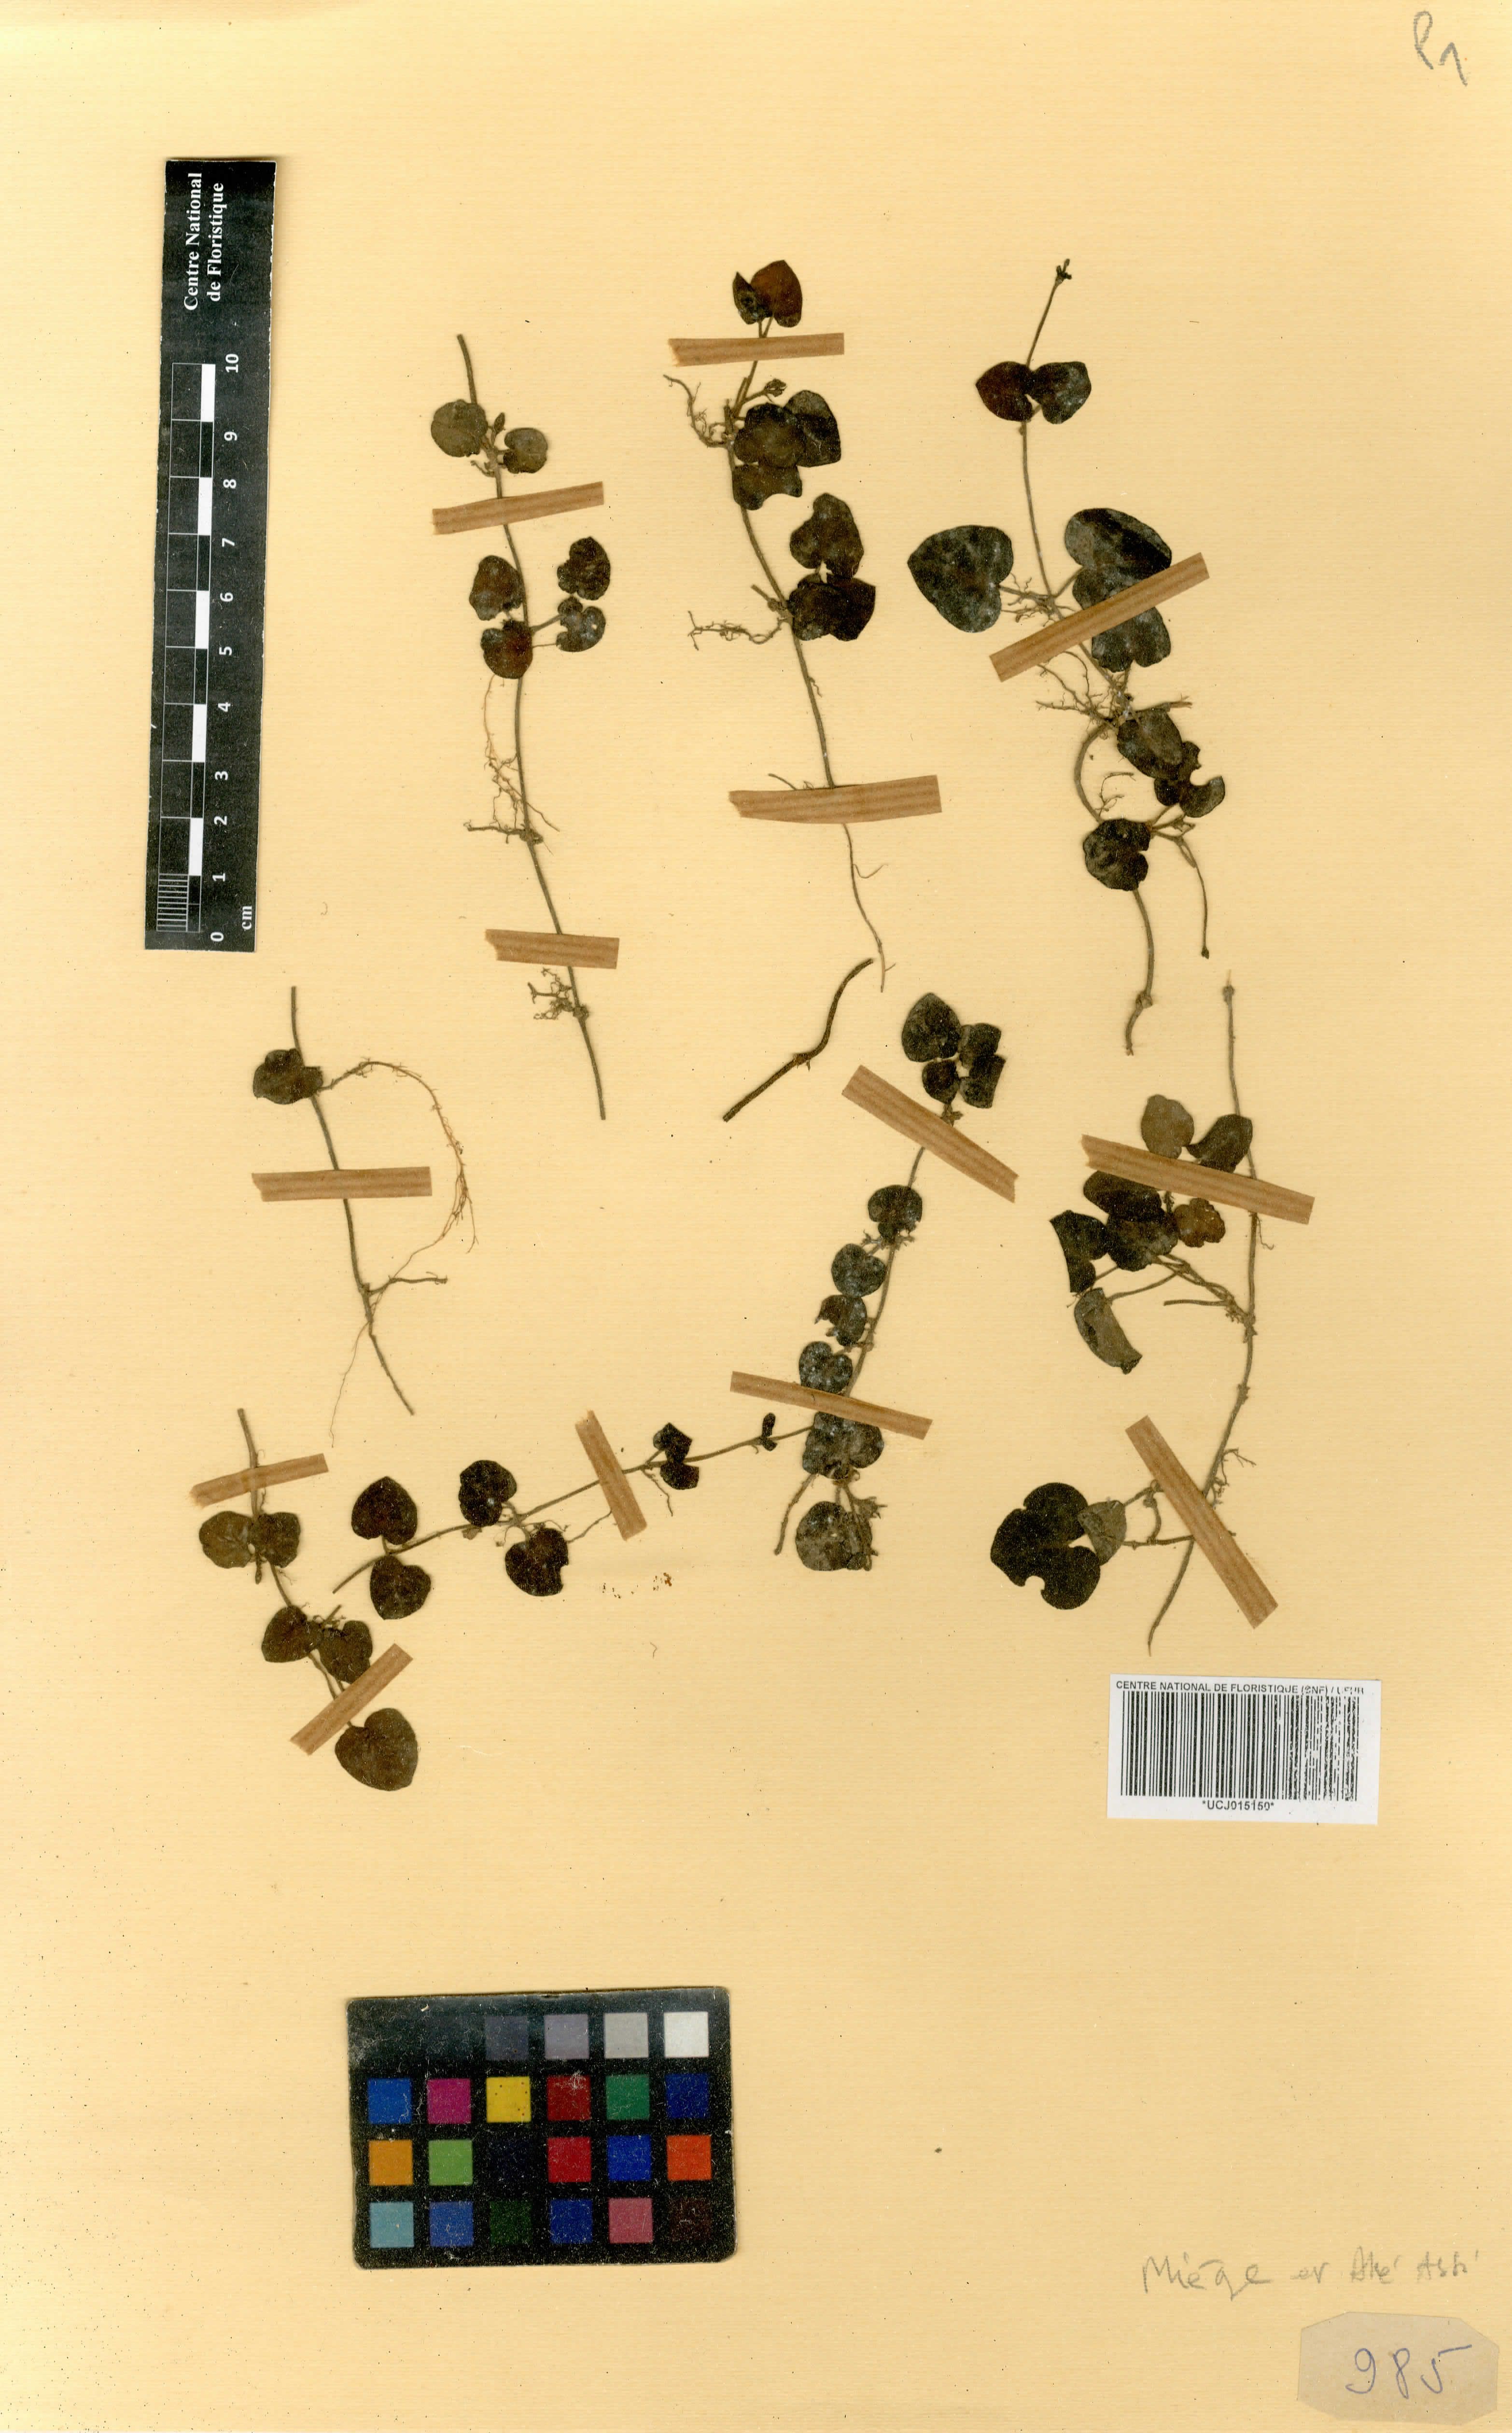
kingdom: Plantae
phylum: Tracheophyta
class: Magnoliopsida
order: Gentianales
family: Rubiaceae
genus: Geophila
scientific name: Geophila herbacea
